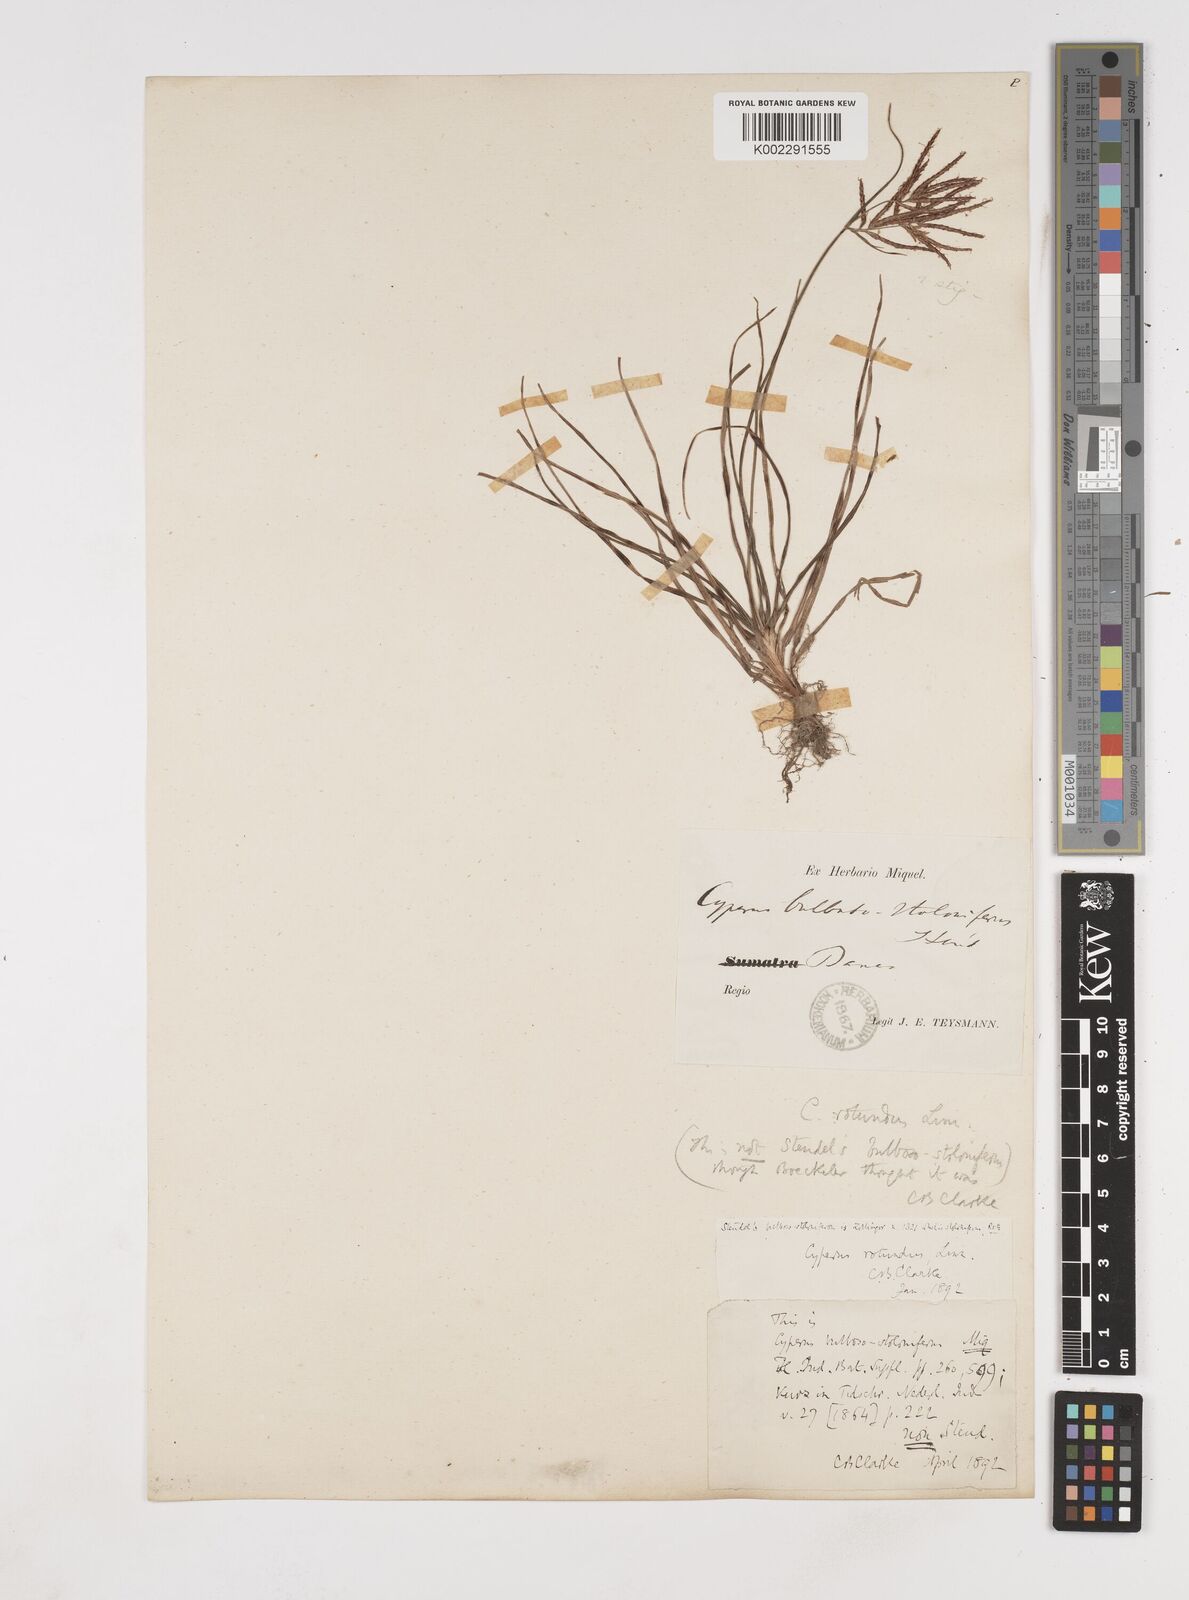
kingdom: Plantae
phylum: Tracheophyta
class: Liliopsida
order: Poales
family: Cyperaceae
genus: Cyperus
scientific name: Cyperus rotundus
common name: Nutgrass
